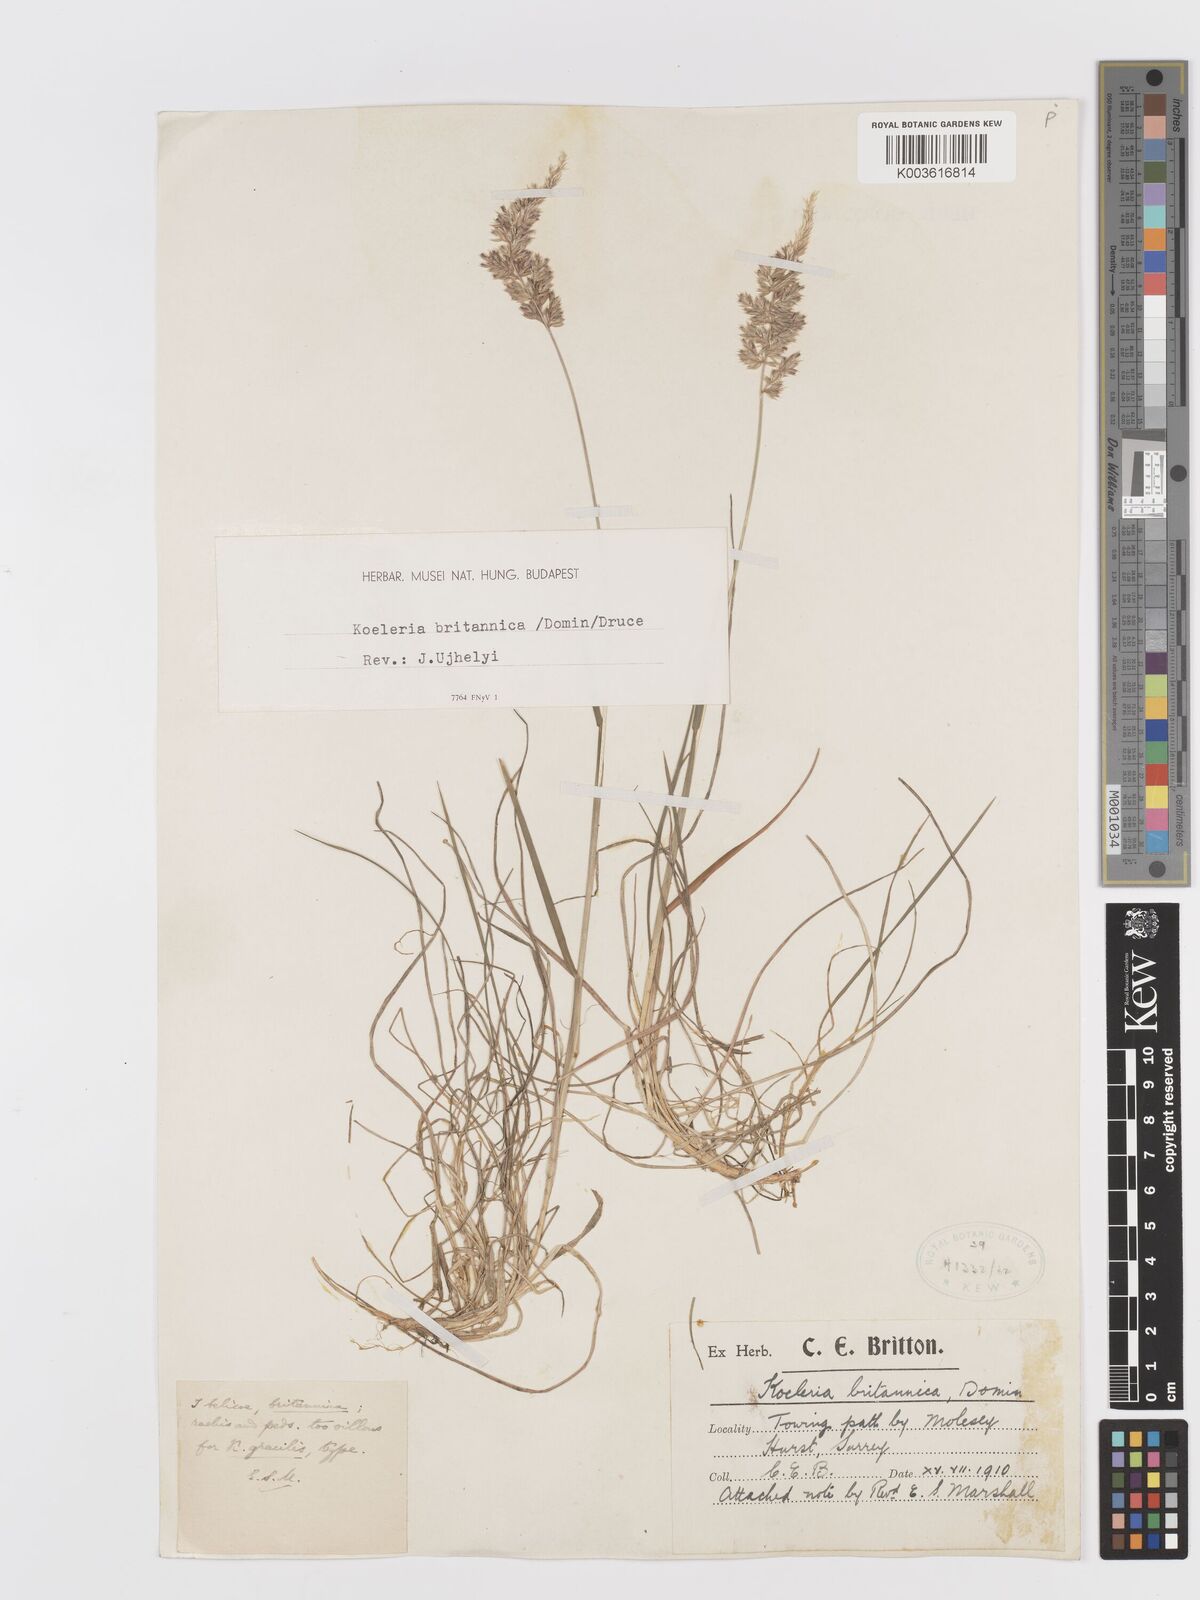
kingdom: Plantae
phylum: Tracheophyta
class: Liliopsida
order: Poales
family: Poaceae
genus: Koeleria
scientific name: Koeleria macrantha
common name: Crested hair-grass
